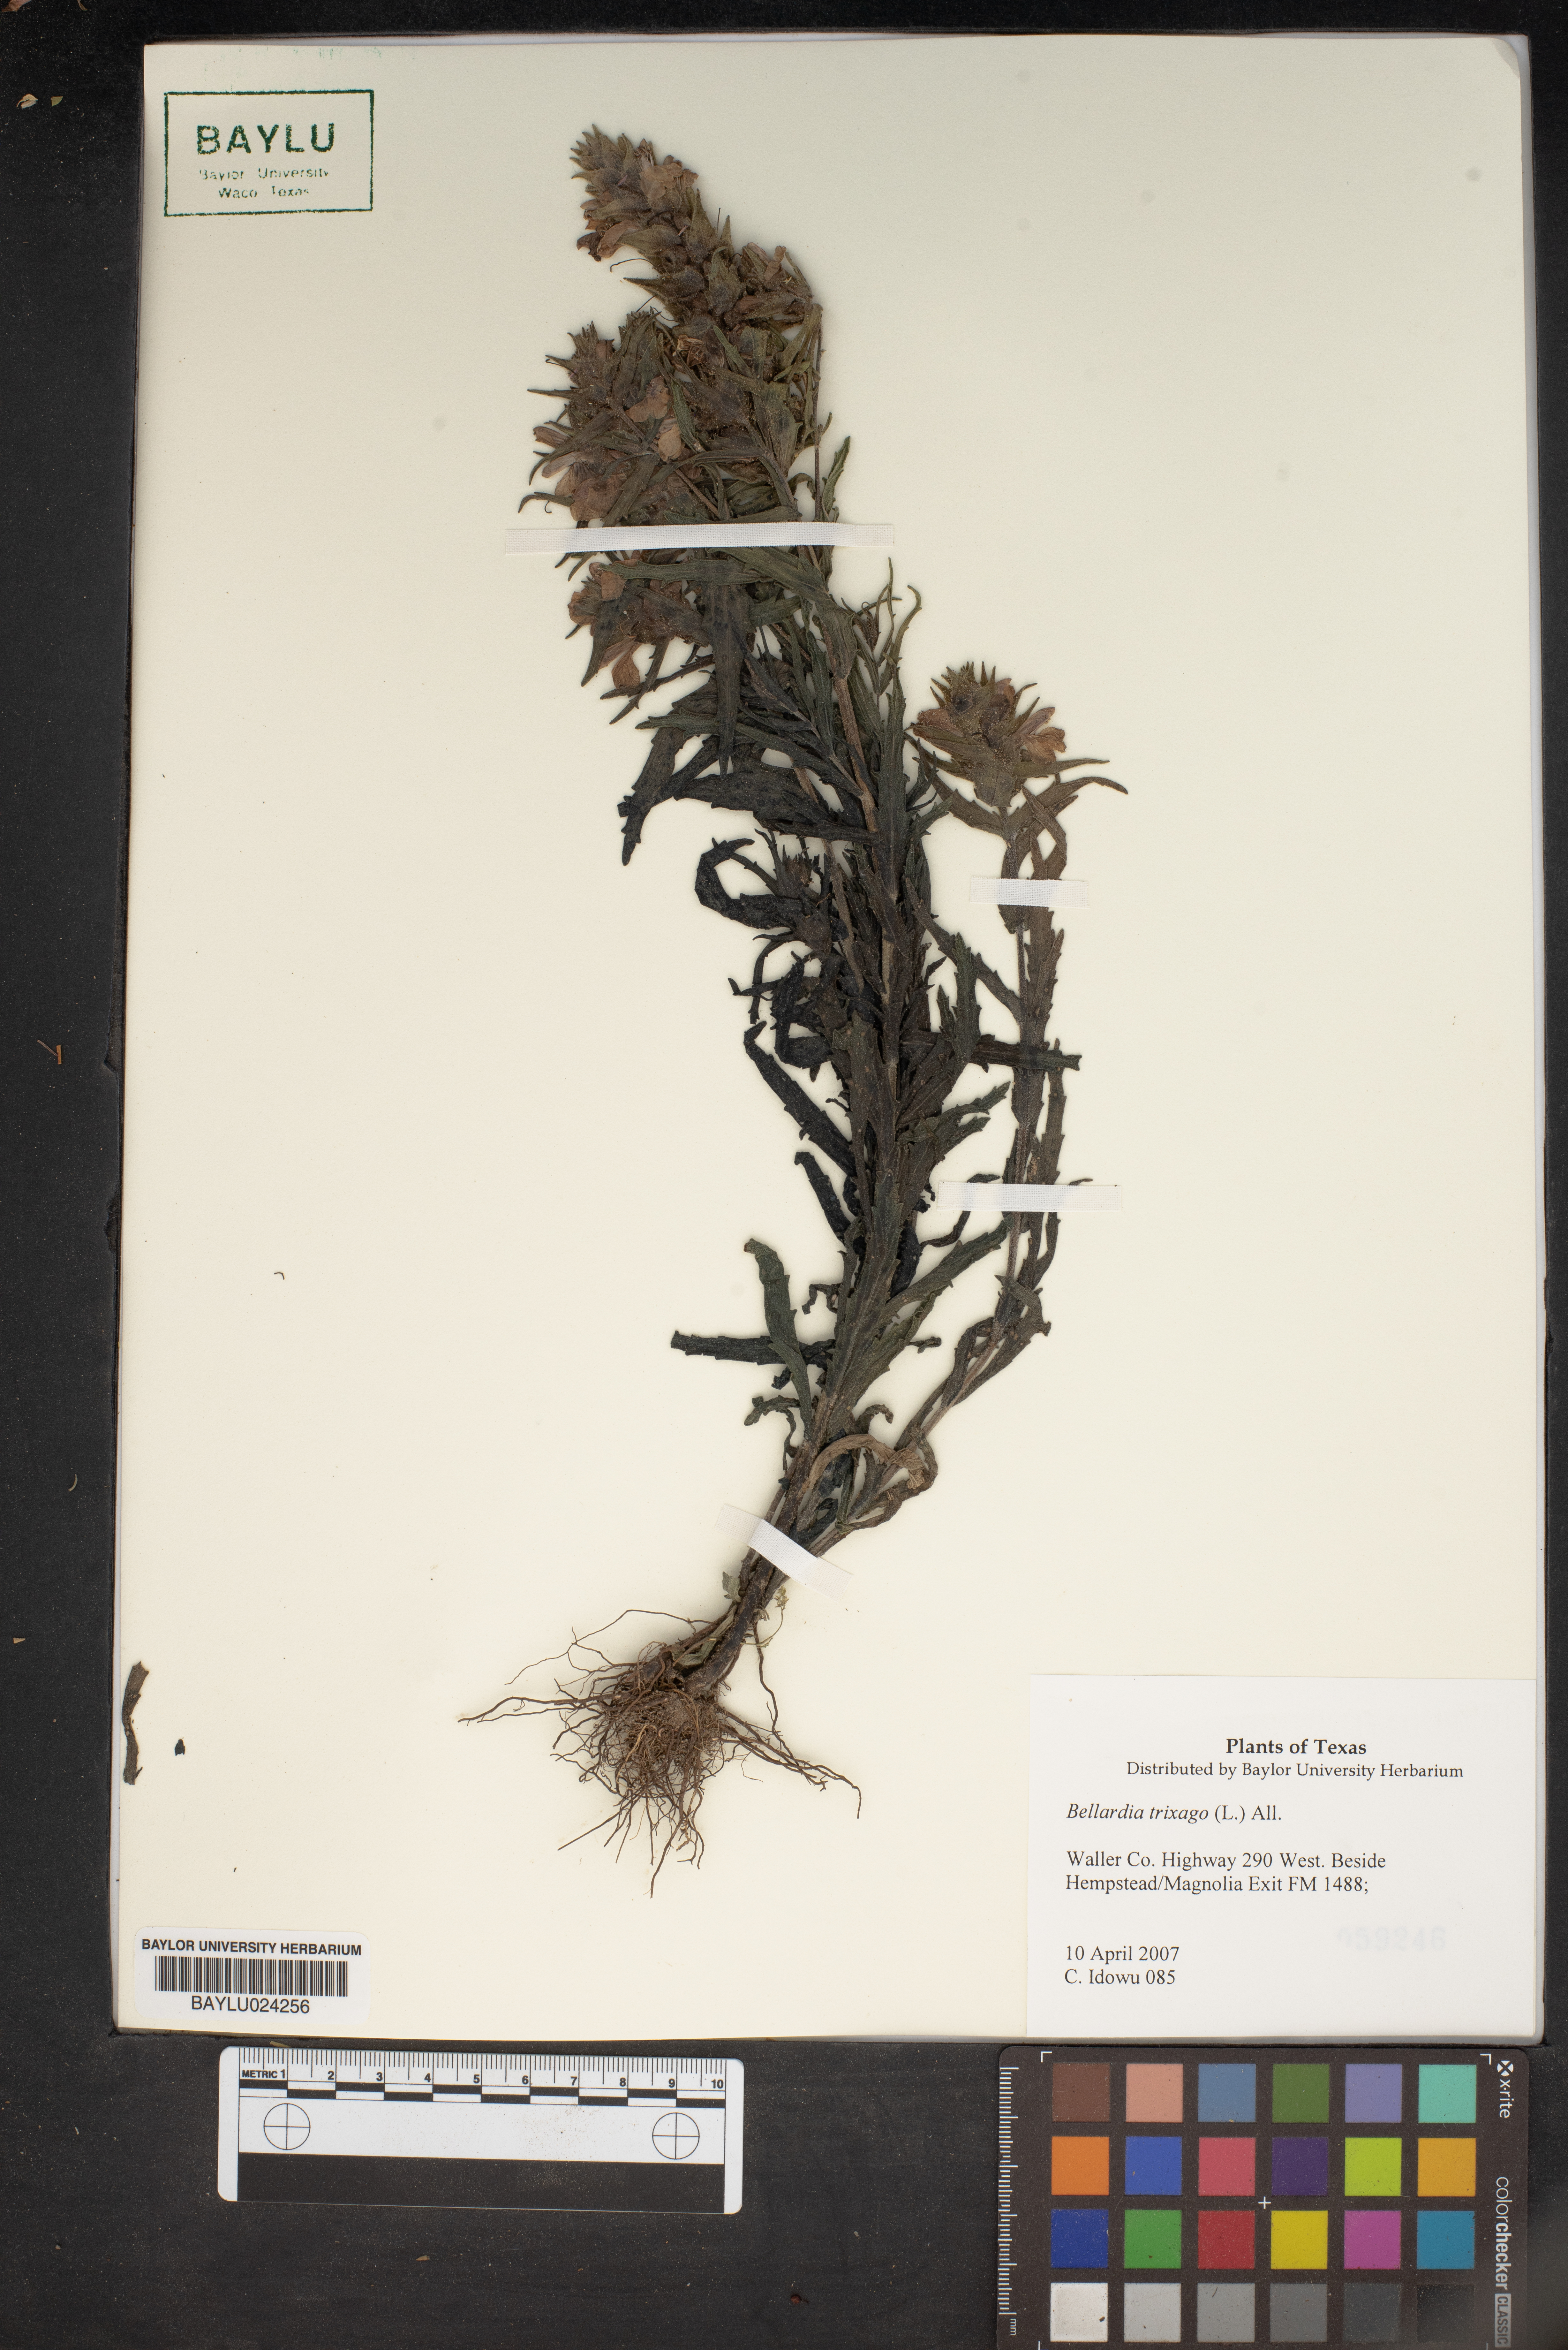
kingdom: Plantae
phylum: Tracheophyta
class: Magnoliopsida
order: Lamiales
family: Orobanchaceae
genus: Bellardia
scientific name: Bellardia trixago
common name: Mediterranean lineseed
